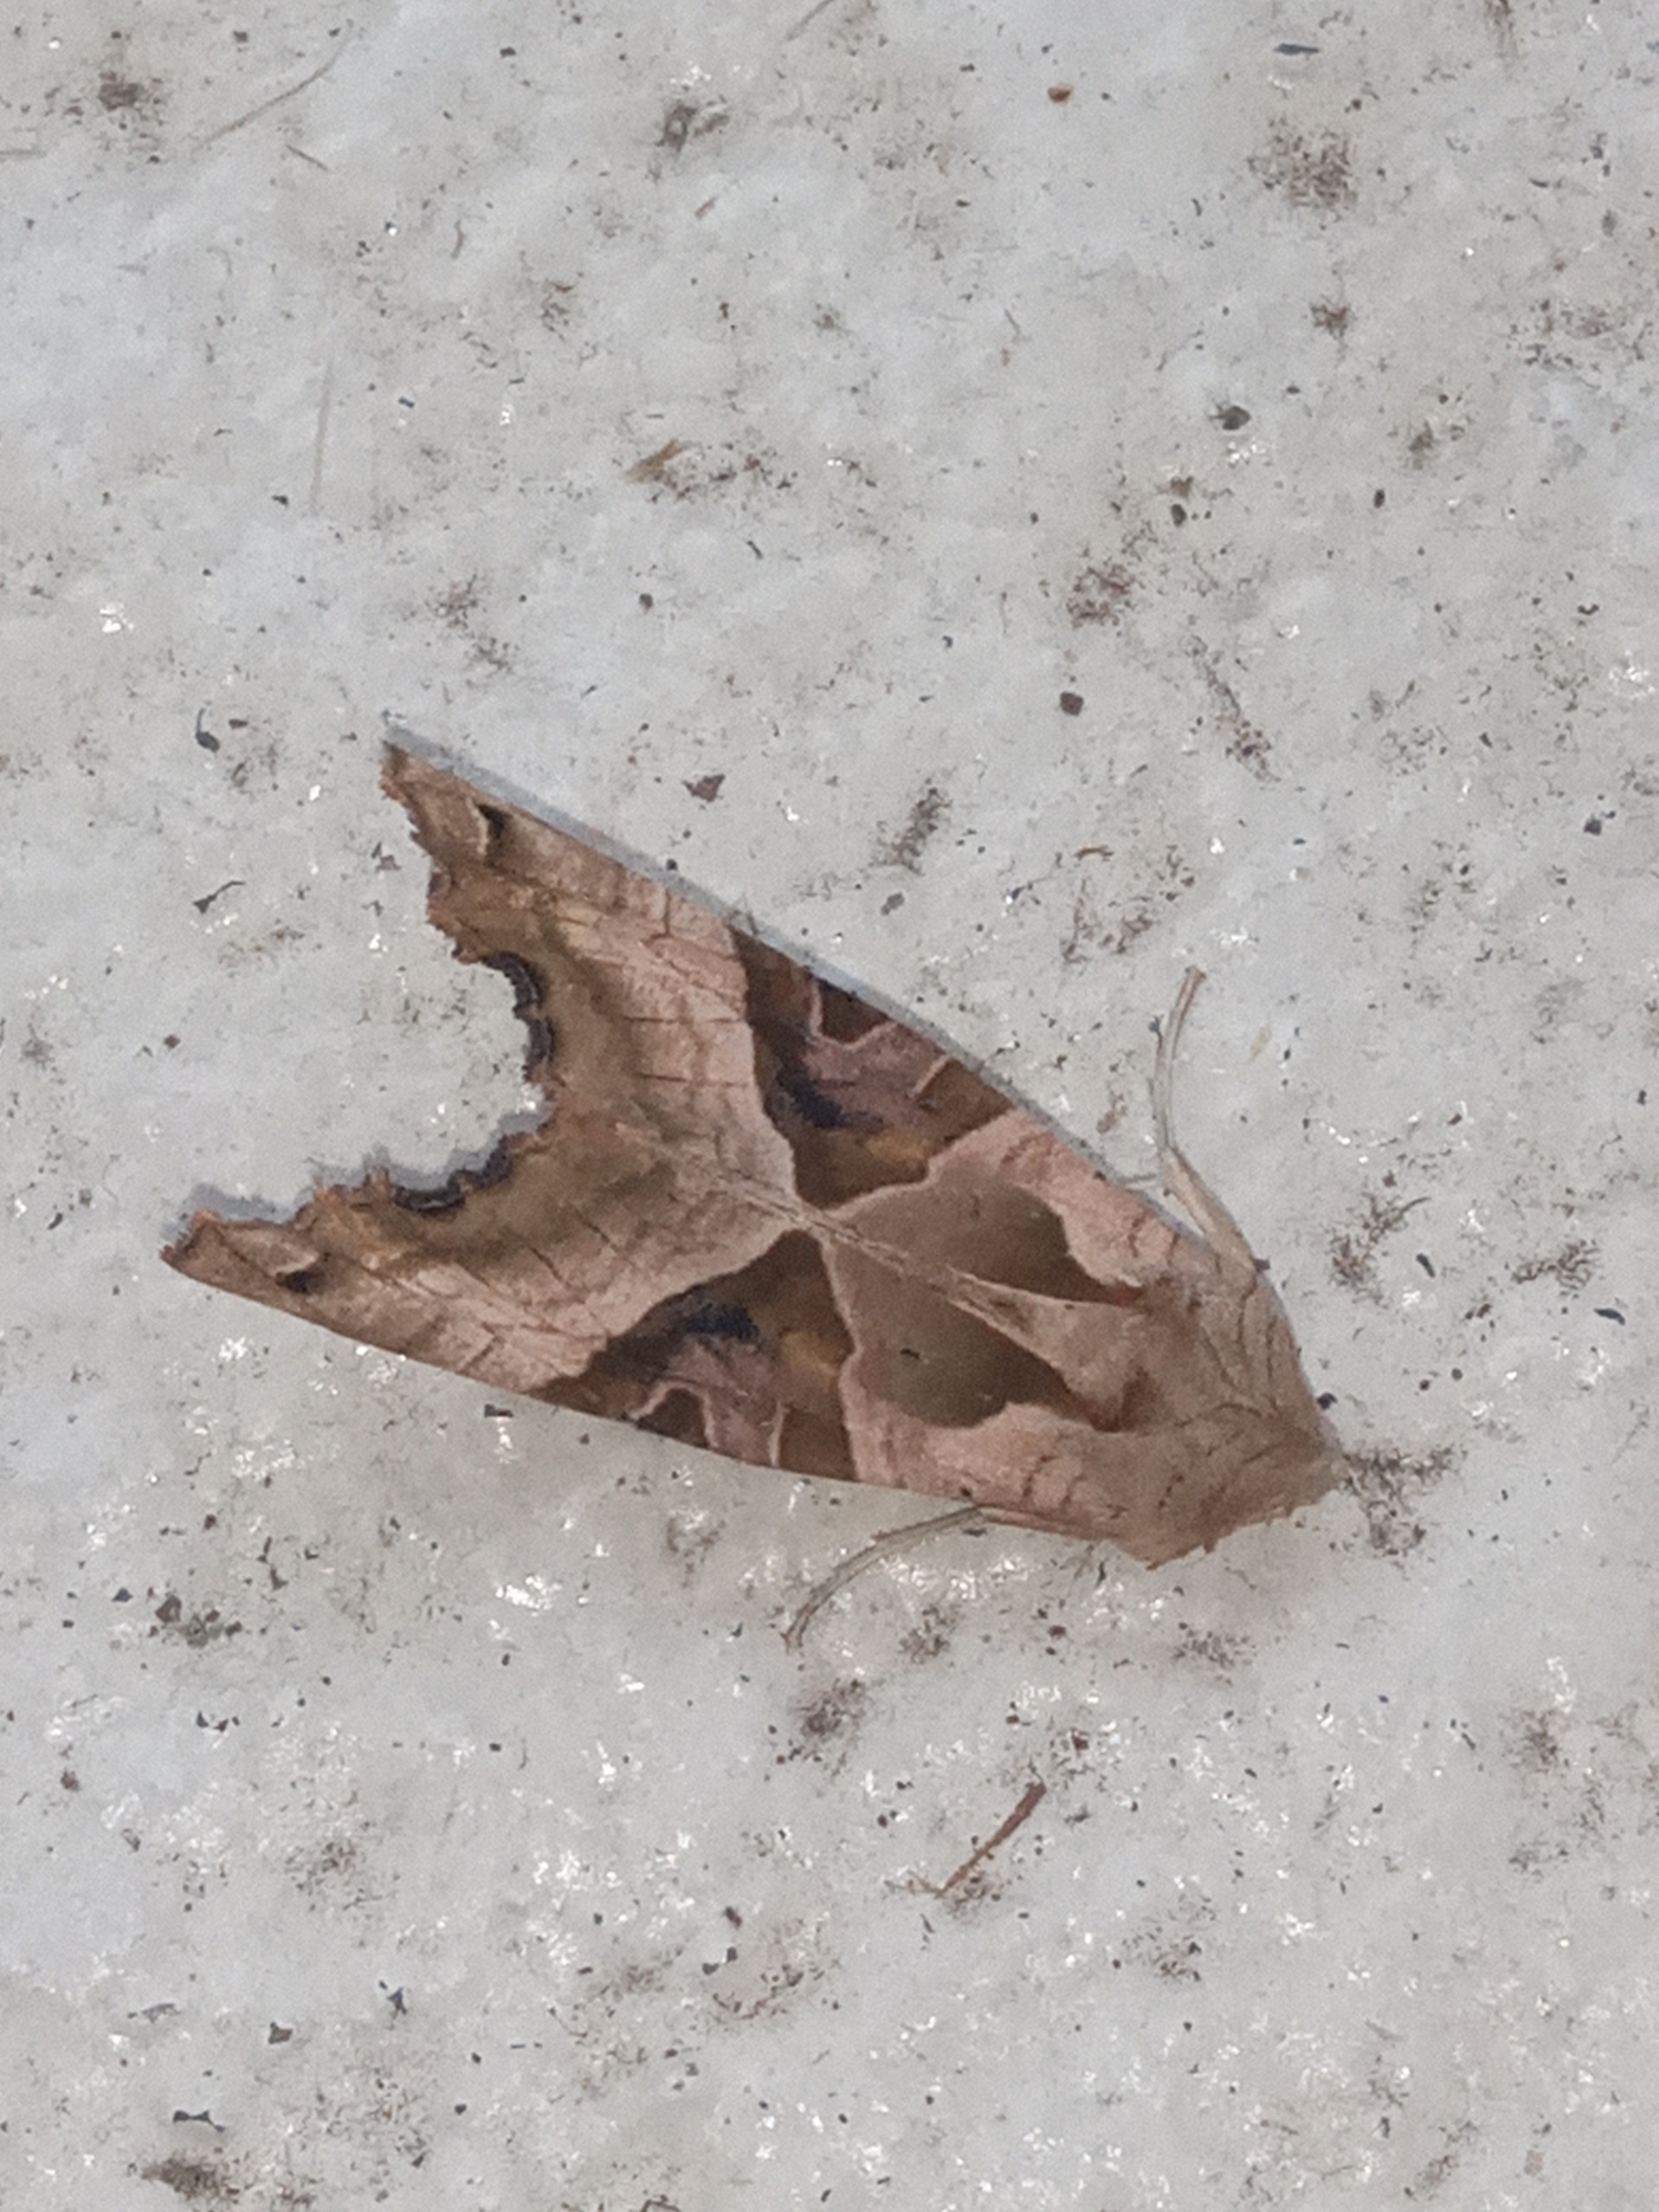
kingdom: Animalia
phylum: Arthropoda
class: Insecta
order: Lepidoptera
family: Noctuidae
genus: Phlogophora
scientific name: Phlogophora meticulosa
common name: Agatugle
